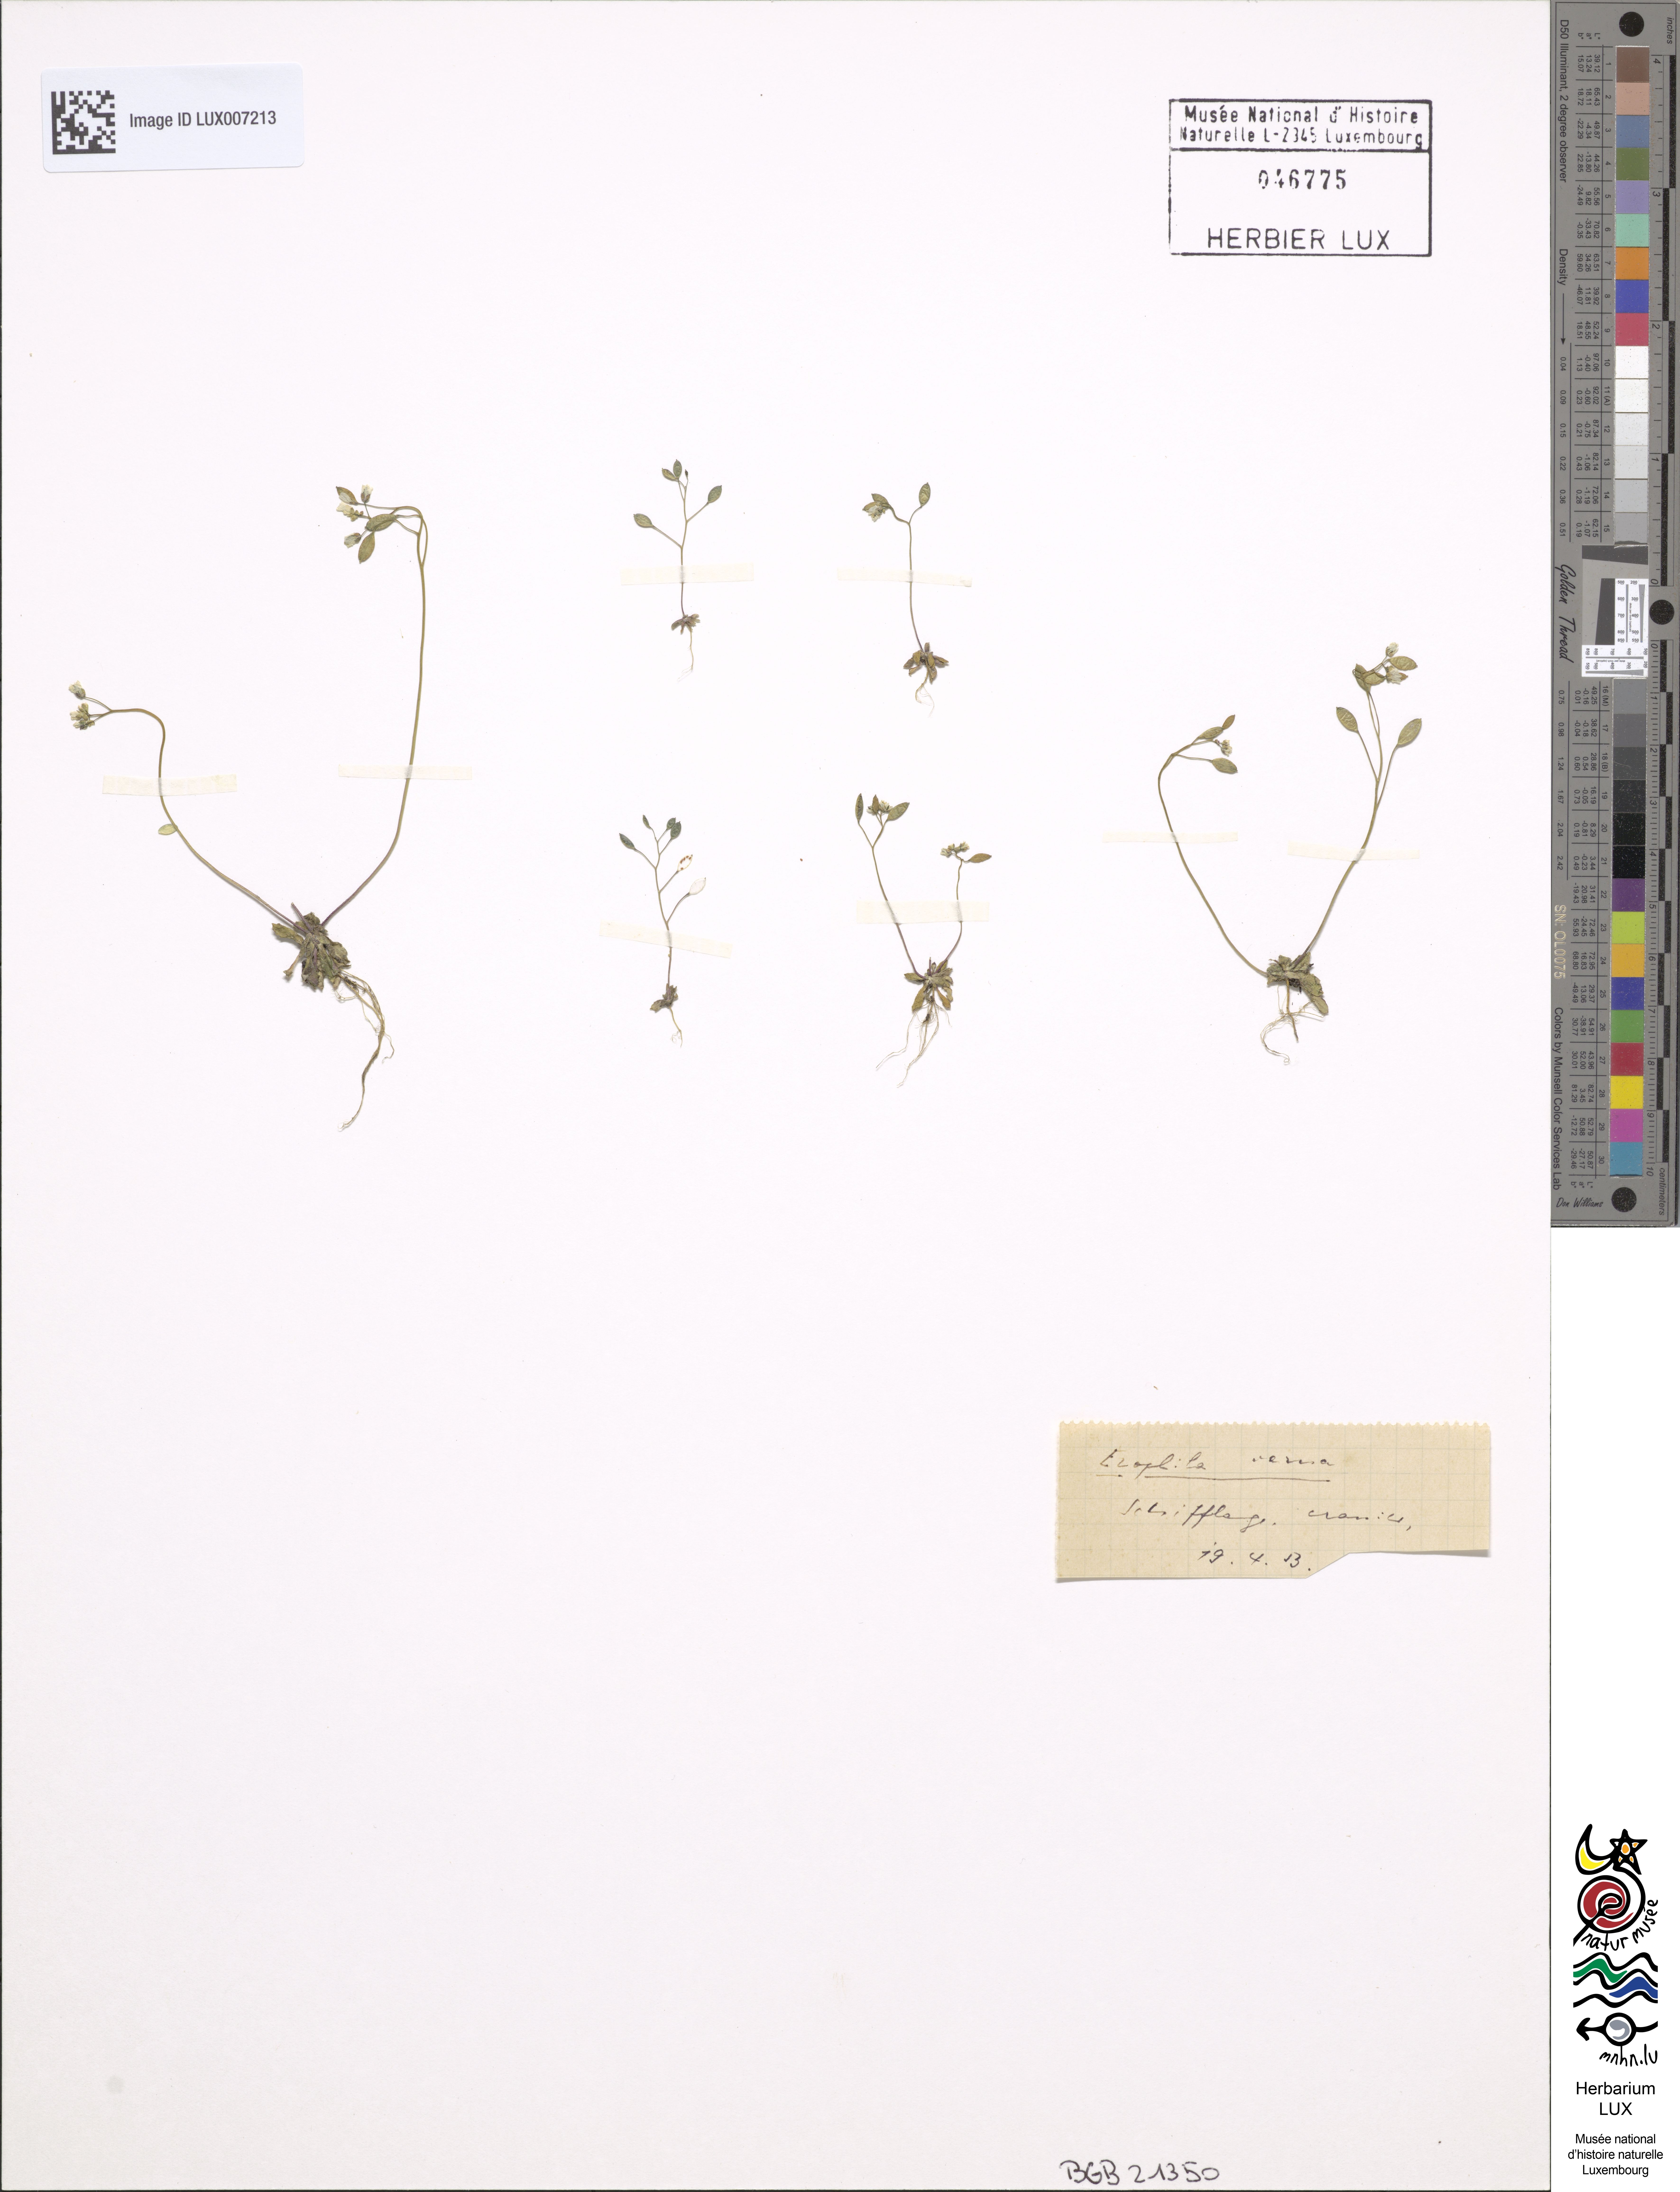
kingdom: Plantae
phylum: Tracheophyta
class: Magnoliopsida
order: Brassicales
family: Brassicaceae
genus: Draba
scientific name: Draba verna
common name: Spring draba
